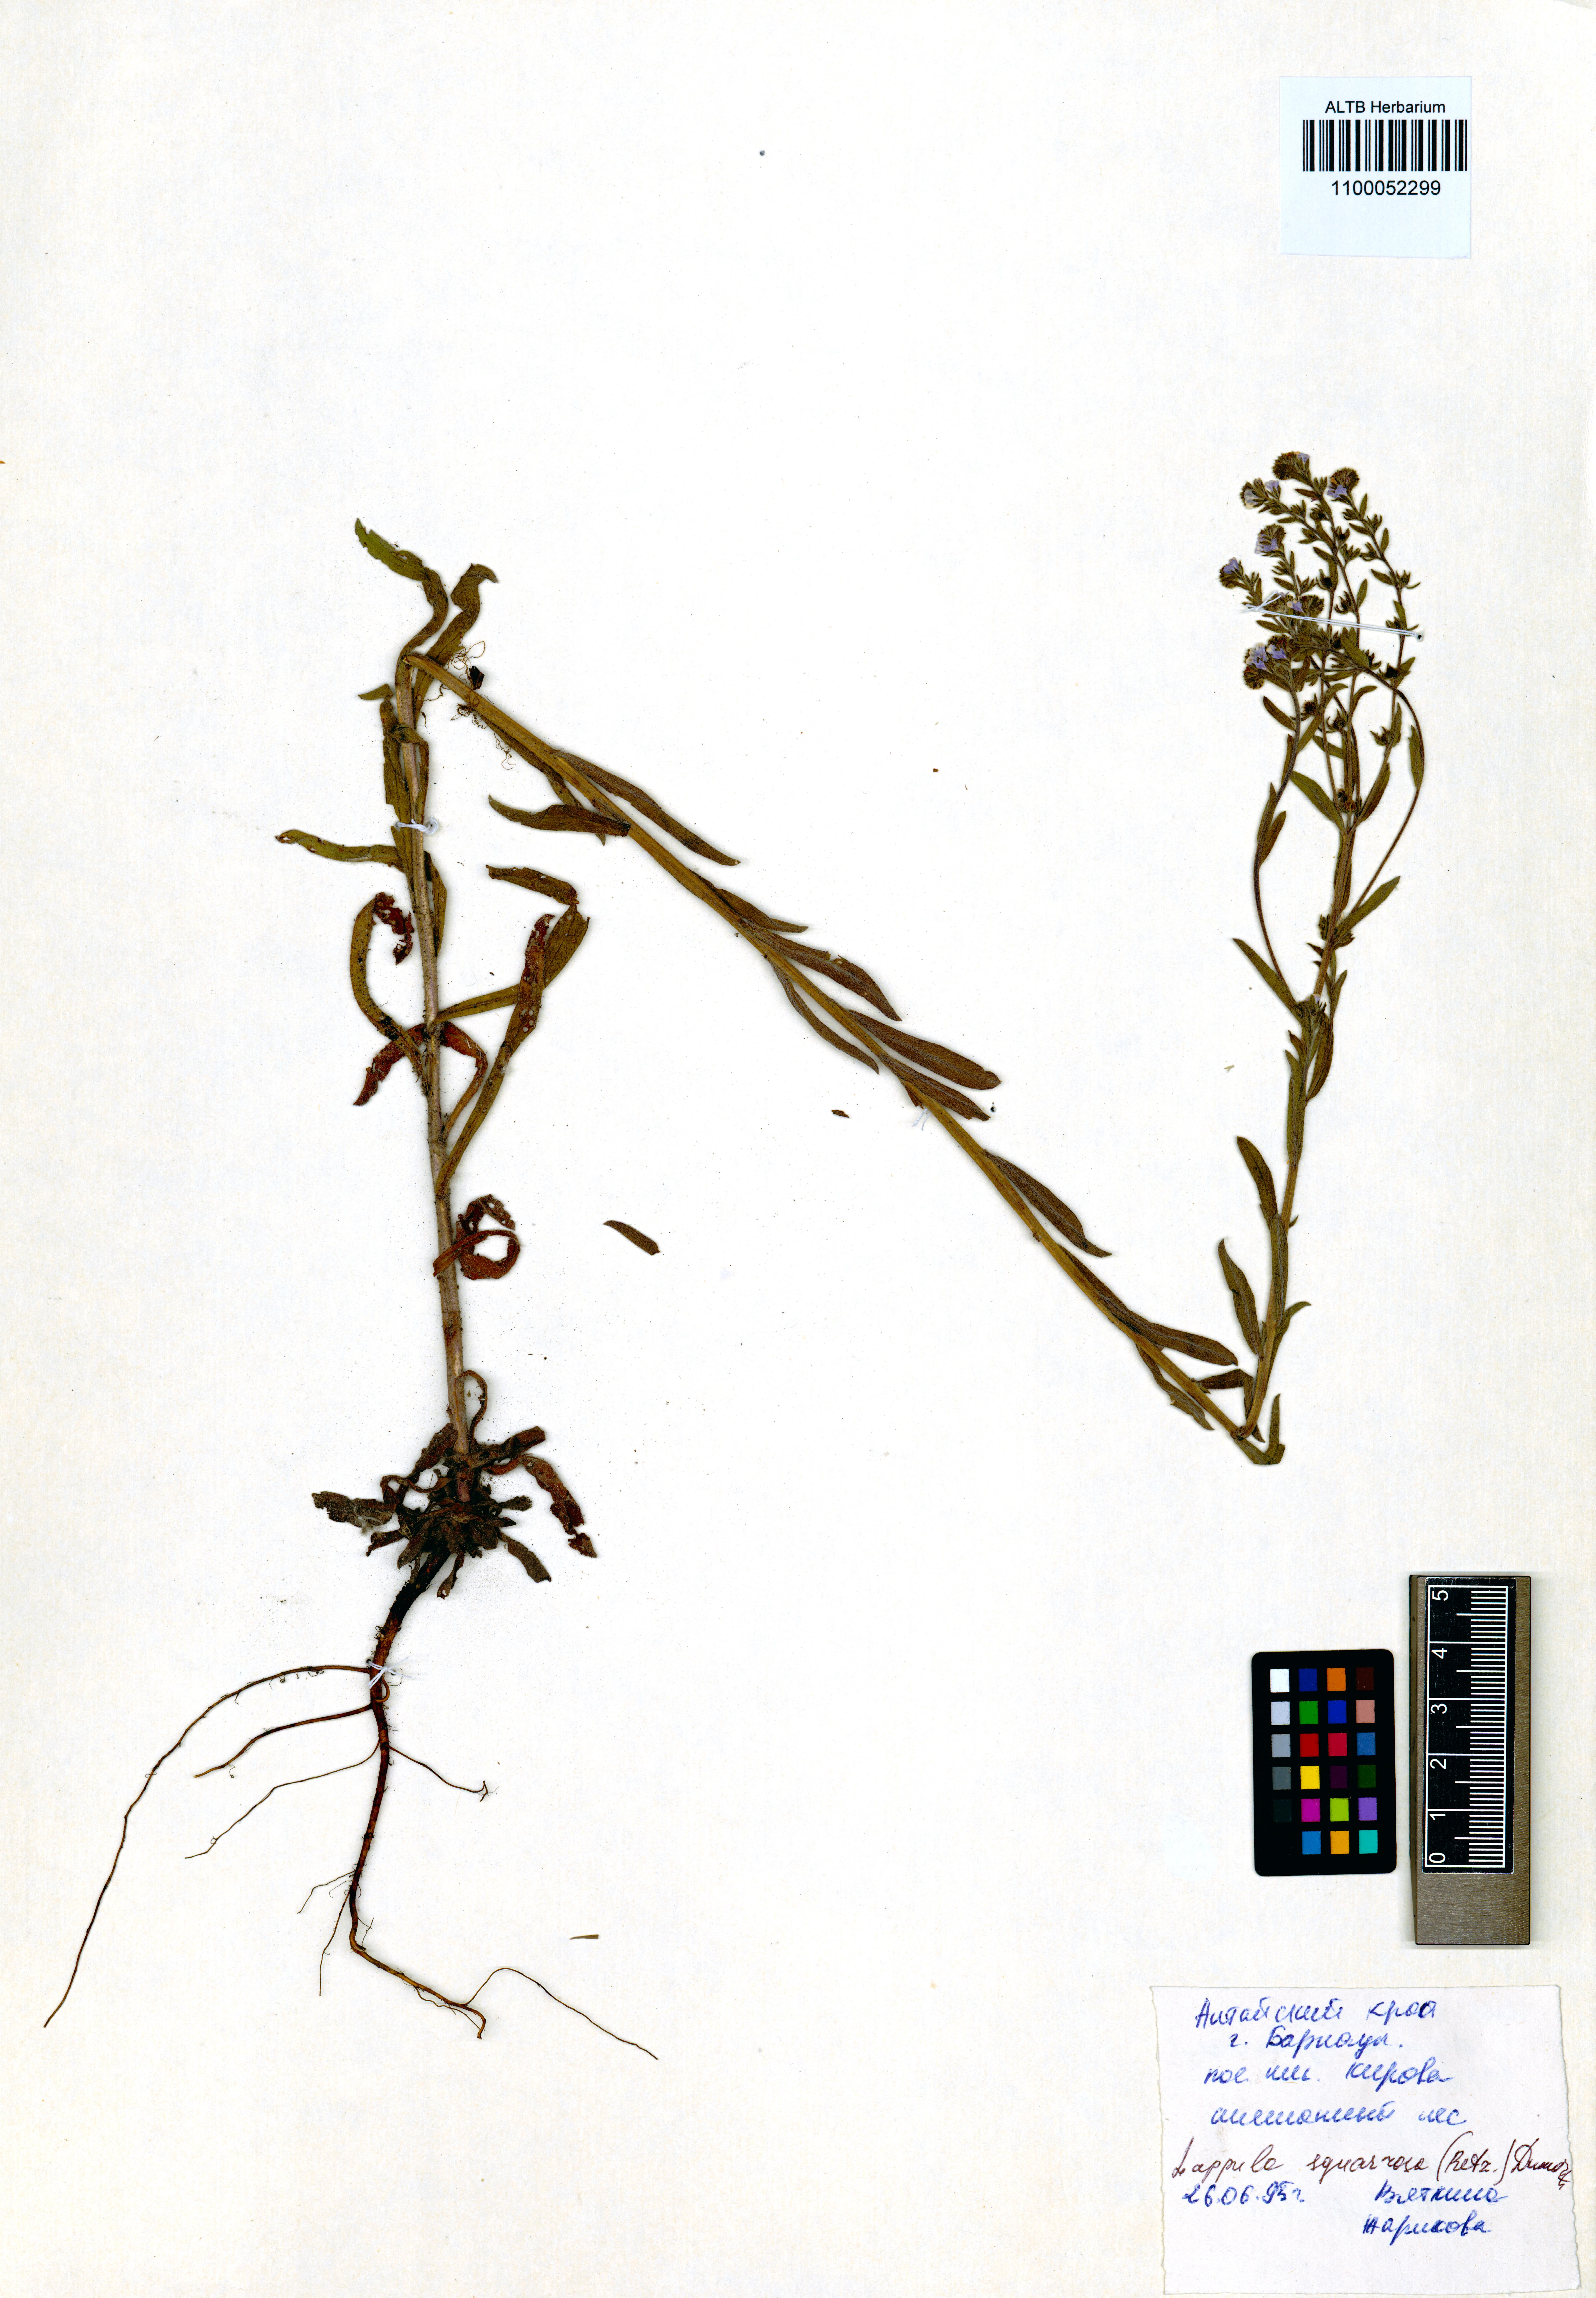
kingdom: Plantae
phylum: Tracheophyta
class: Magnoliopsida
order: Boraginales
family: Boraginaceae
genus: Lappula
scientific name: Lappula squarrosa
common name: European stickseed
